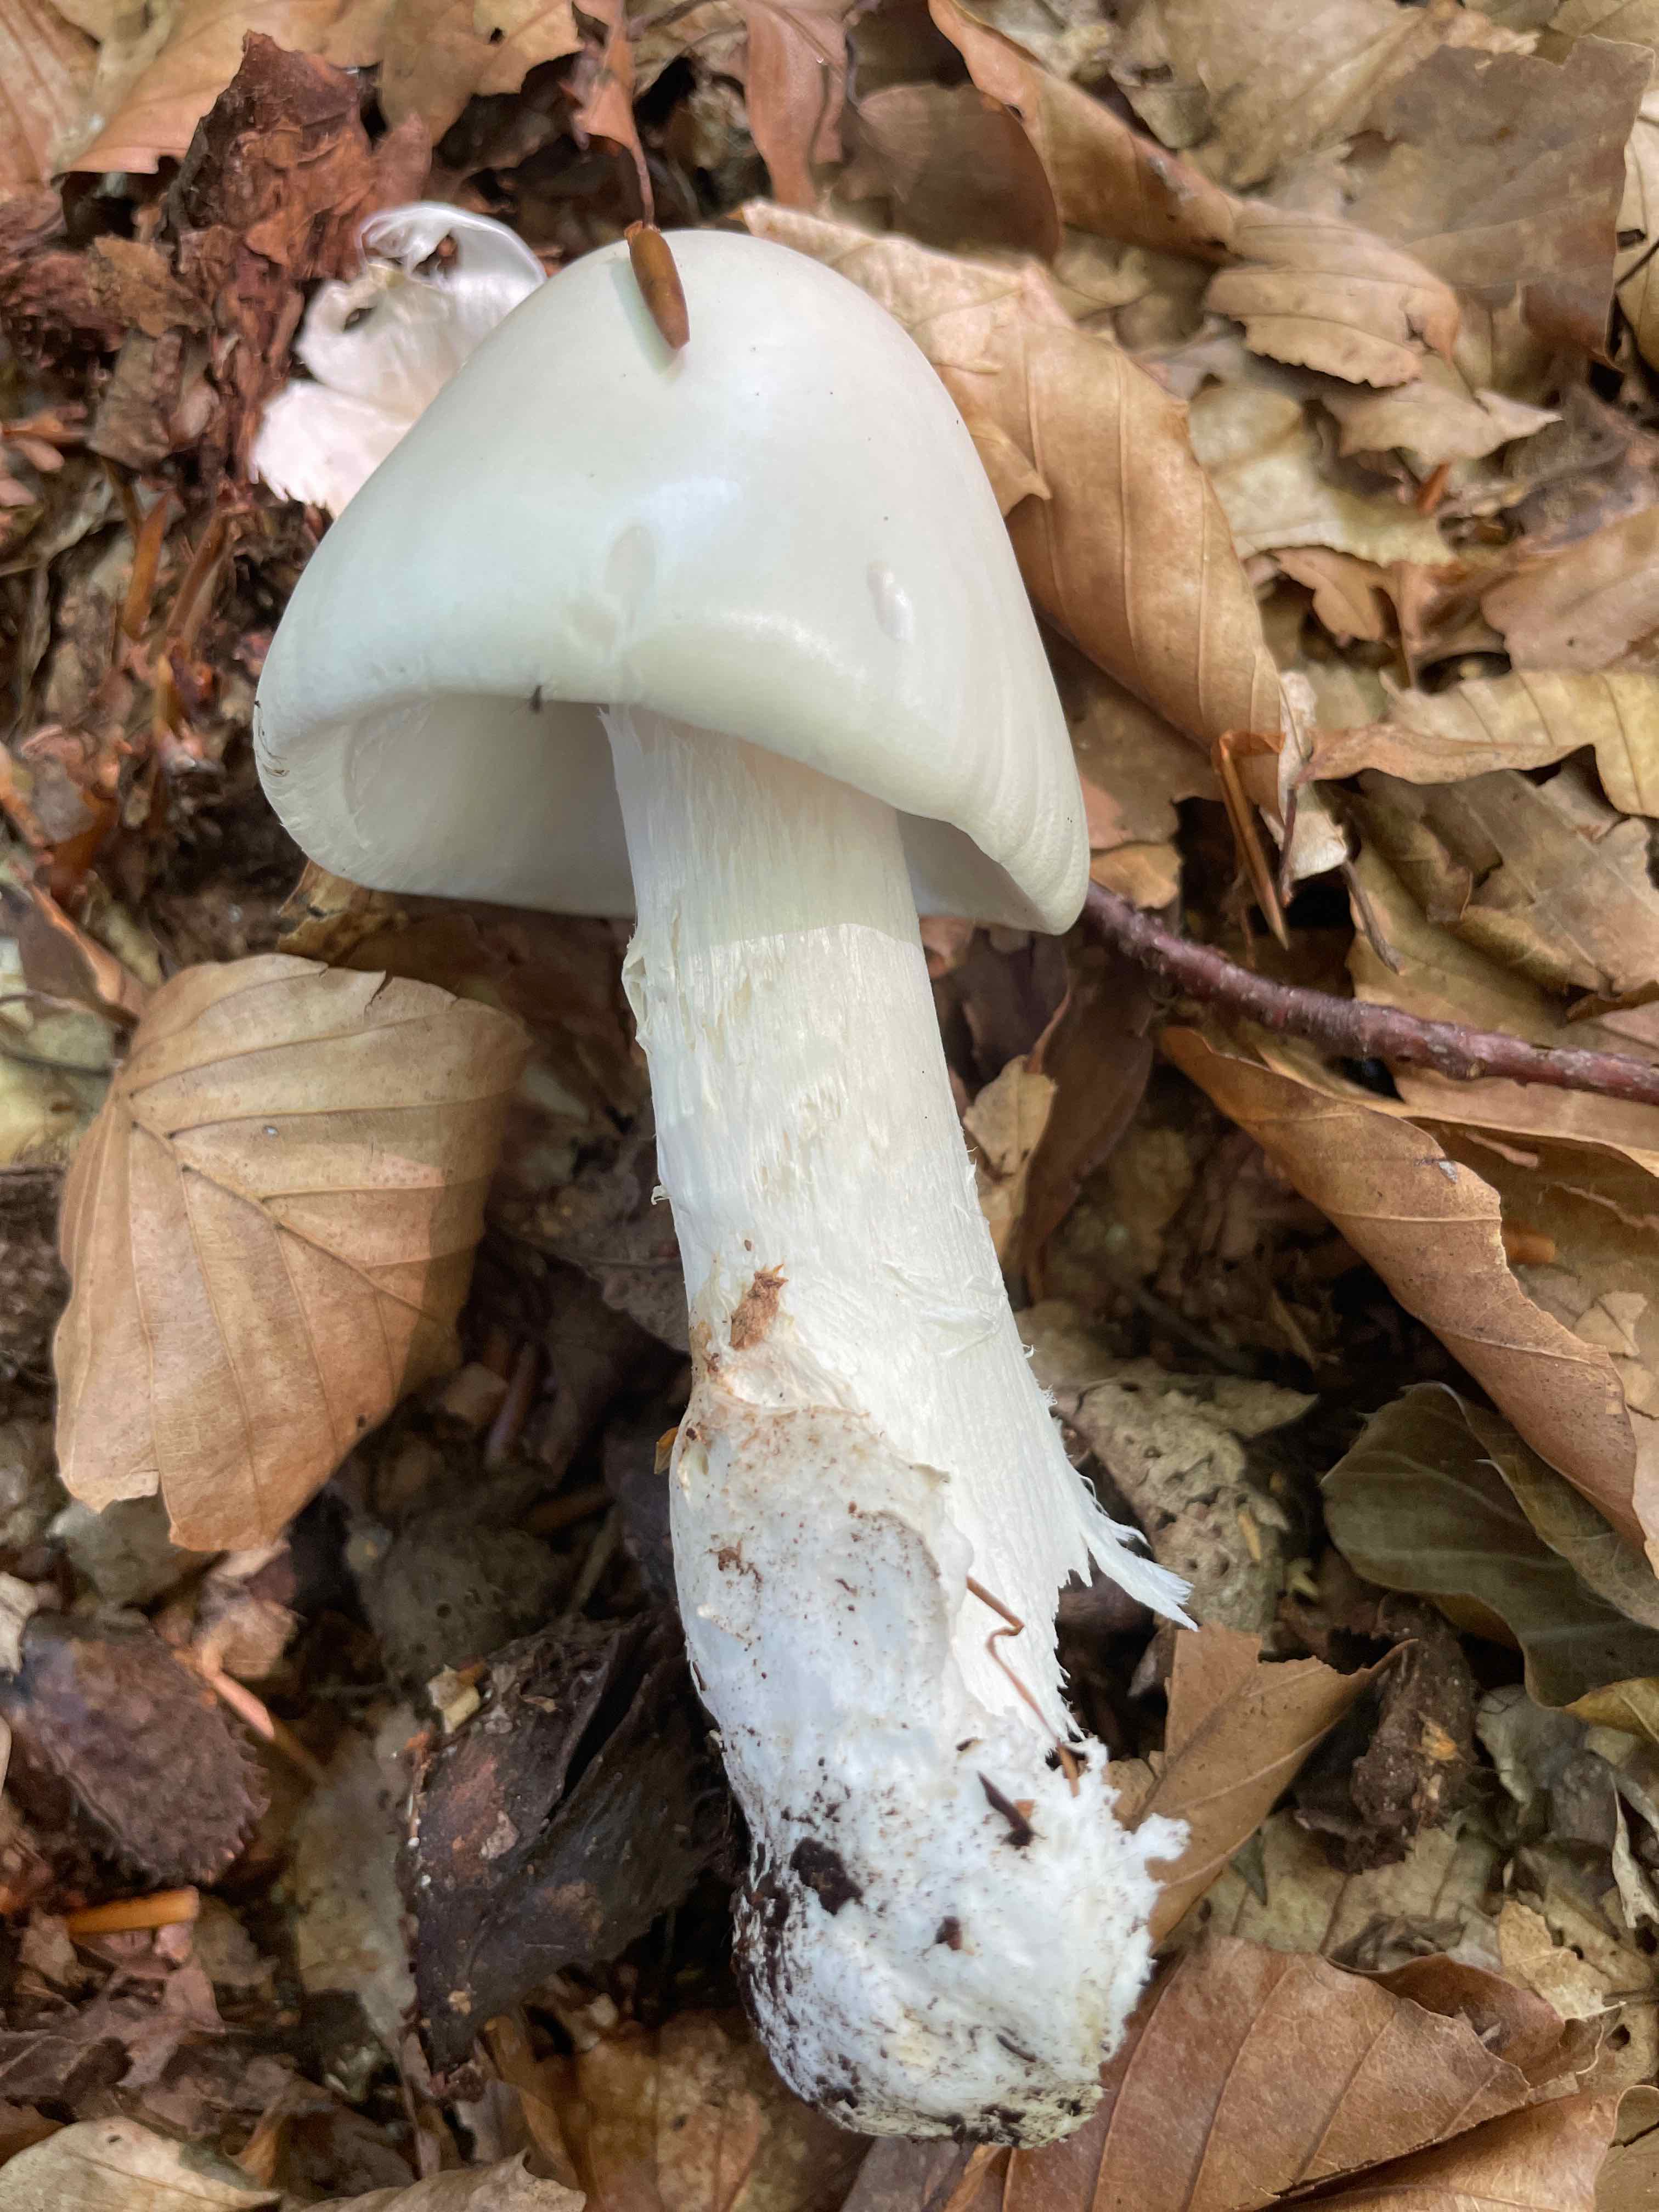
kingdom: Fungi
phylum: Basidiomycota
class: Agaricomycetes
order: Agaricales
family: Amanitaceae
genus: Amanita
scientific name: Amanita virosa
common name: snehvid fluesvamp
